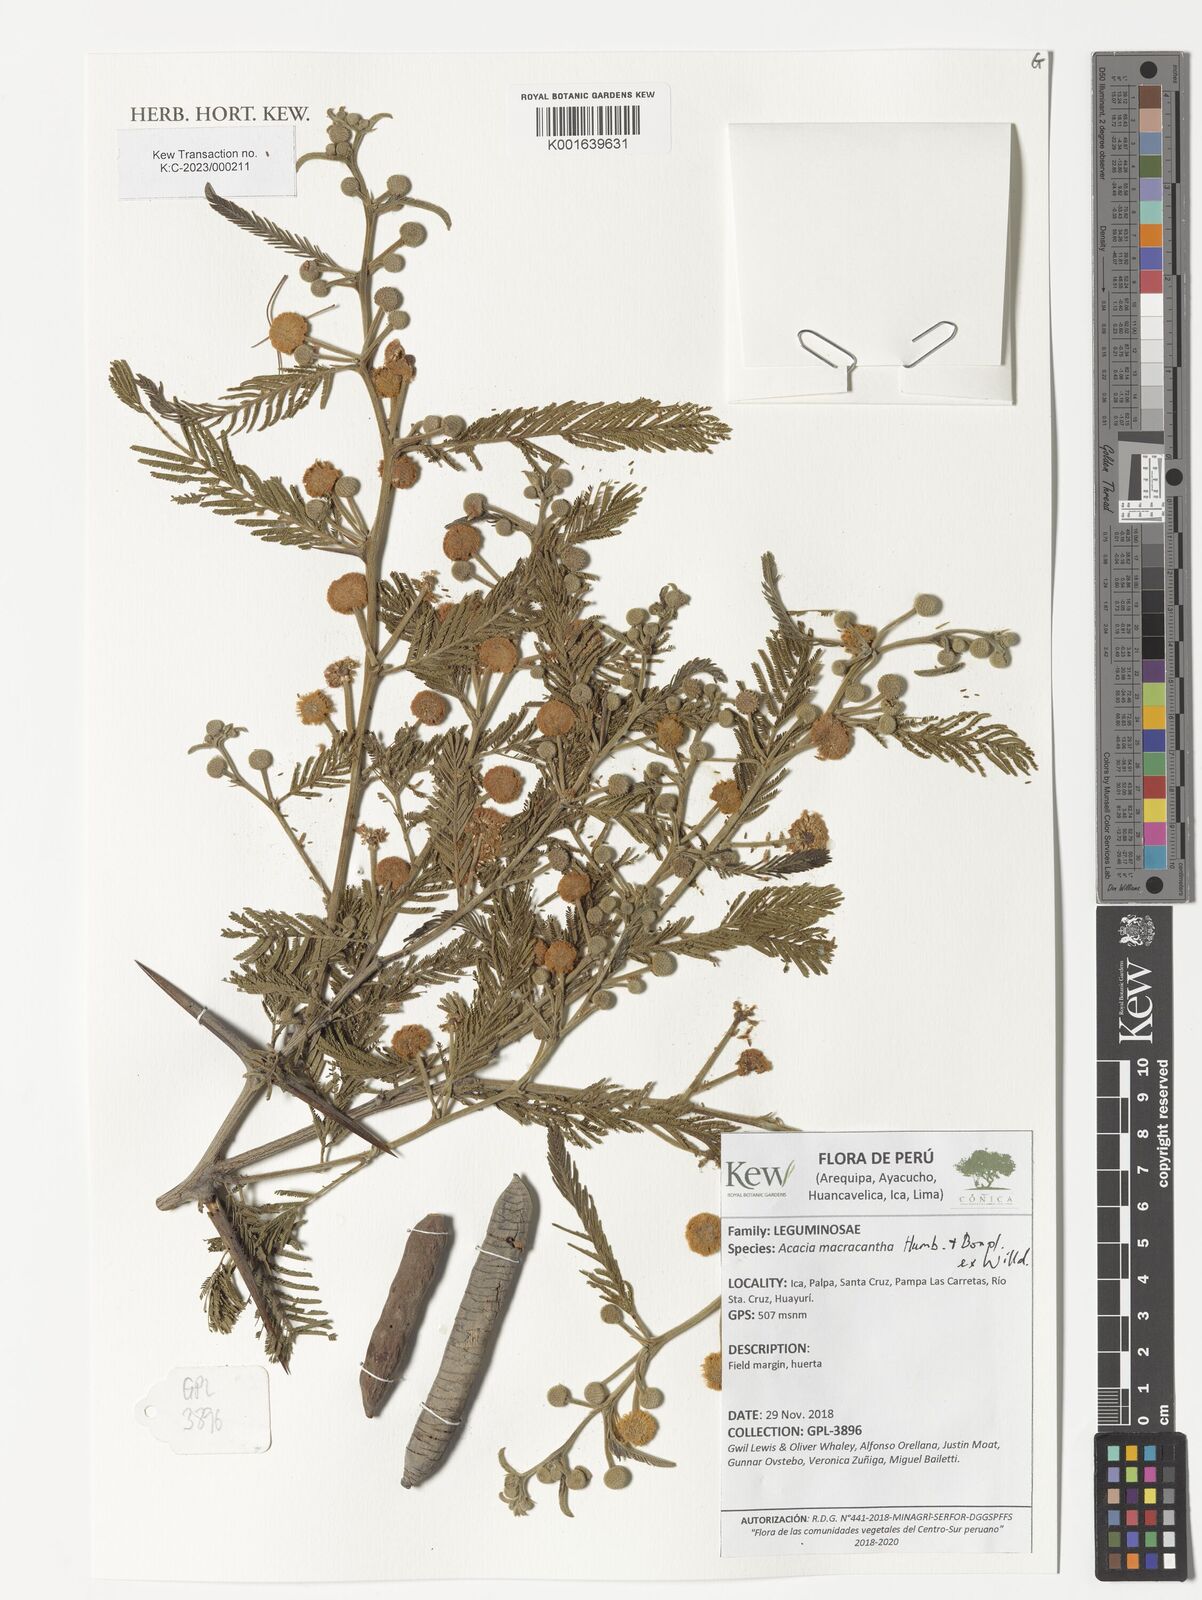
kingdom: Plantae
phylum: Tracheophyta
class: Magnoliopsida
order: Fabales
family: Fabaceae
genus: Vachellia
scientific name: Vachellia macracantha
